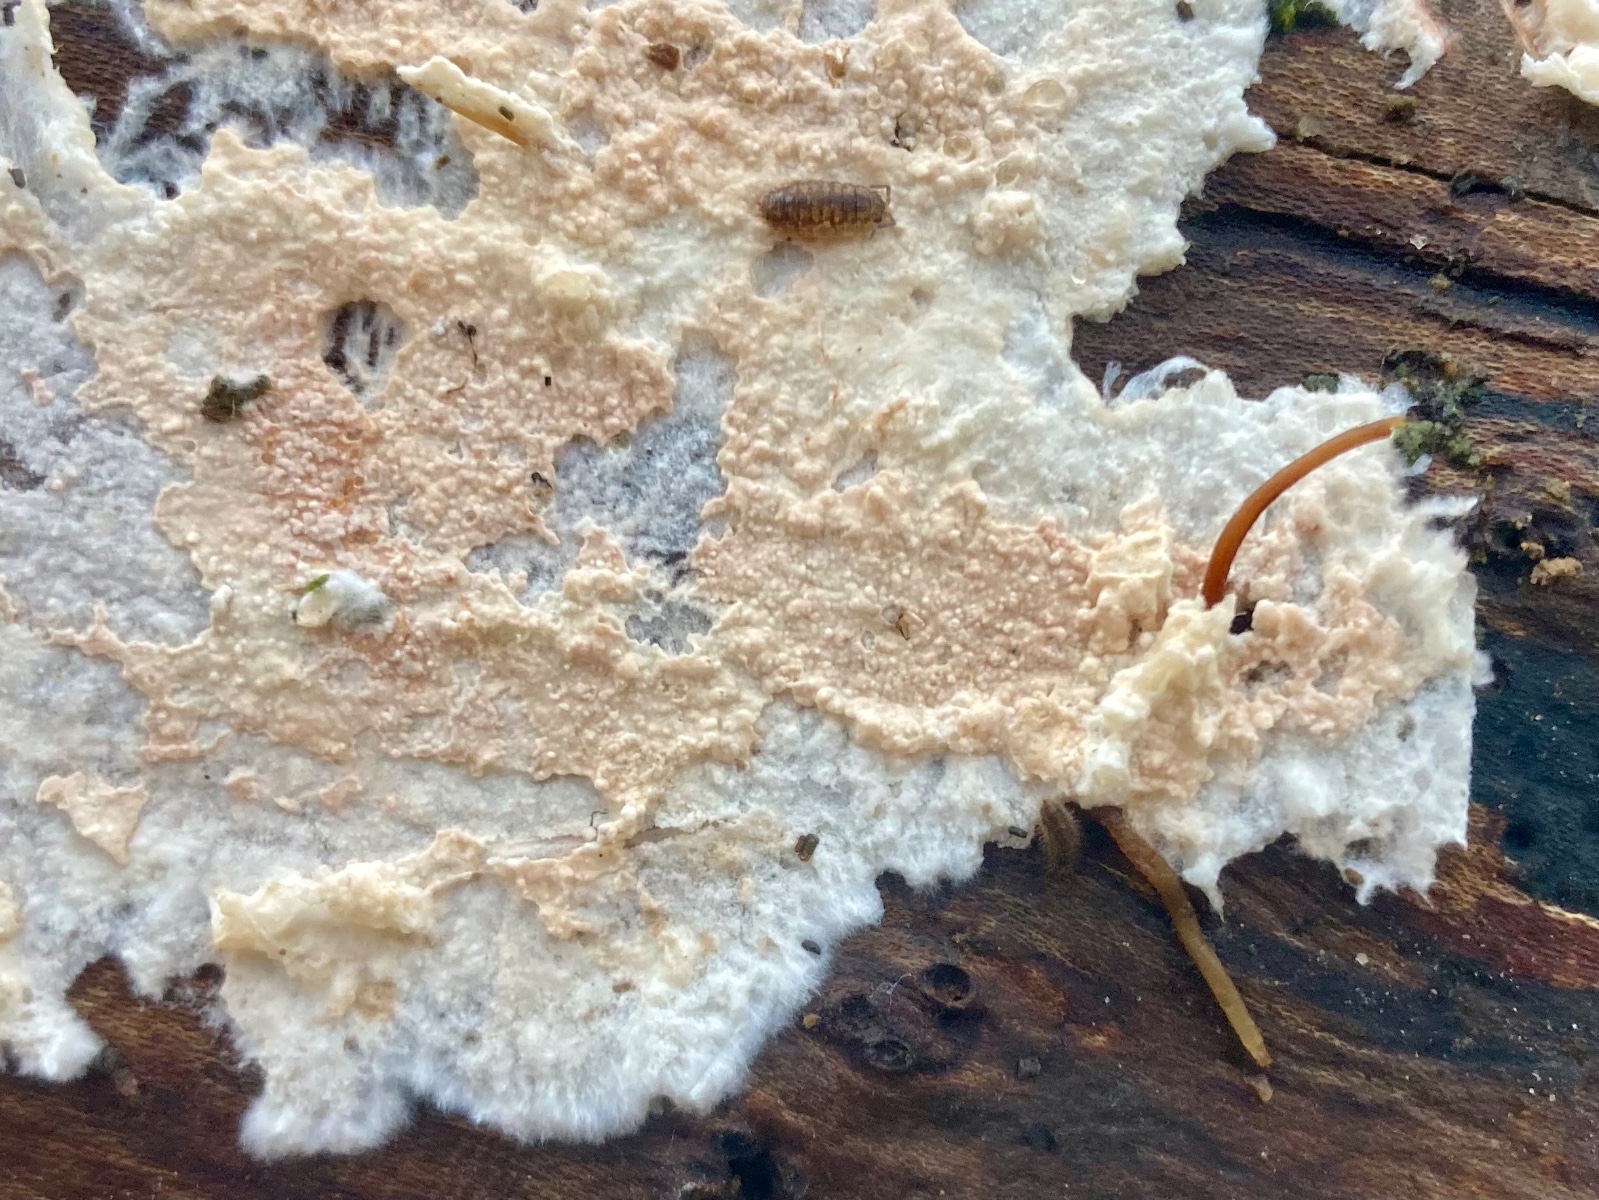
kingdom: Fungi
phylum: Basidiomycota
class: Agaricomycetes
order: Corticiales
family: Corticiaceae
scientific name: Corticiaceae
